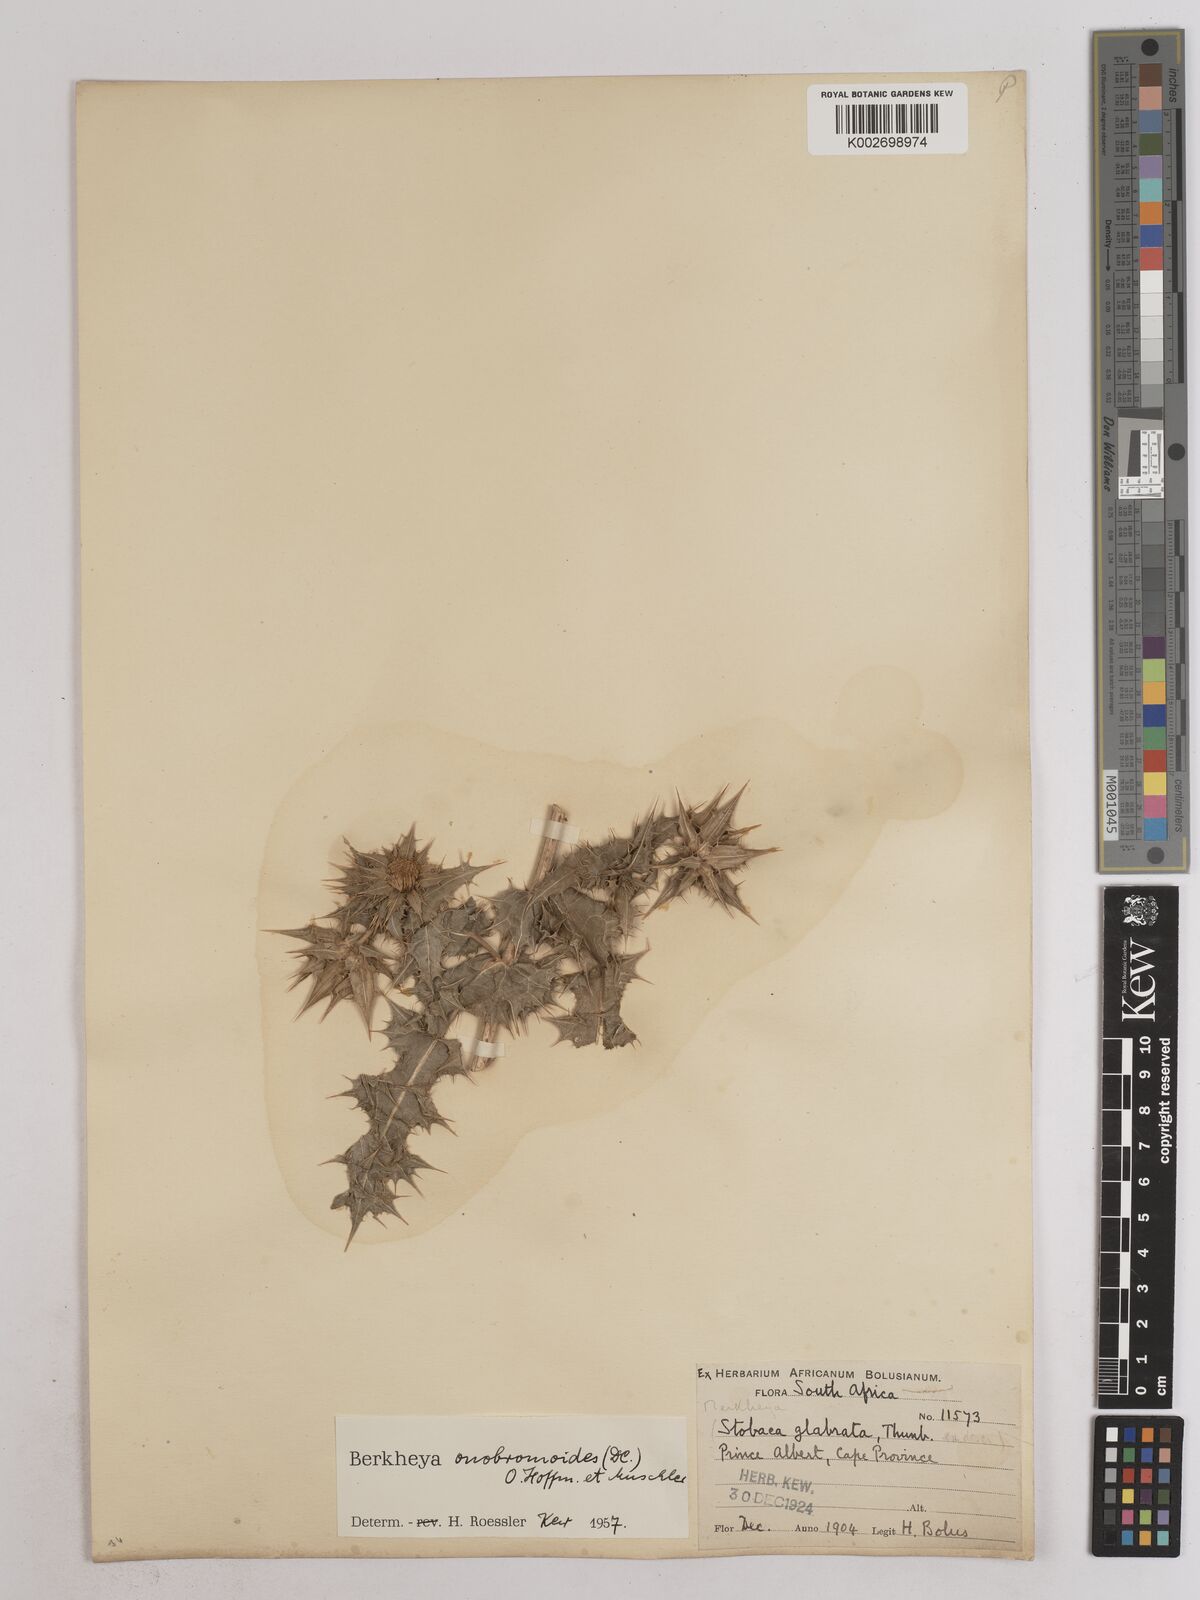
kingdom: Plantae
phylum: Tracheophyta
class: Magnoliopsida
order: Asterales
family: Asteraceae
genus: Berkheya
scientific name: Berkheya onobromoides
